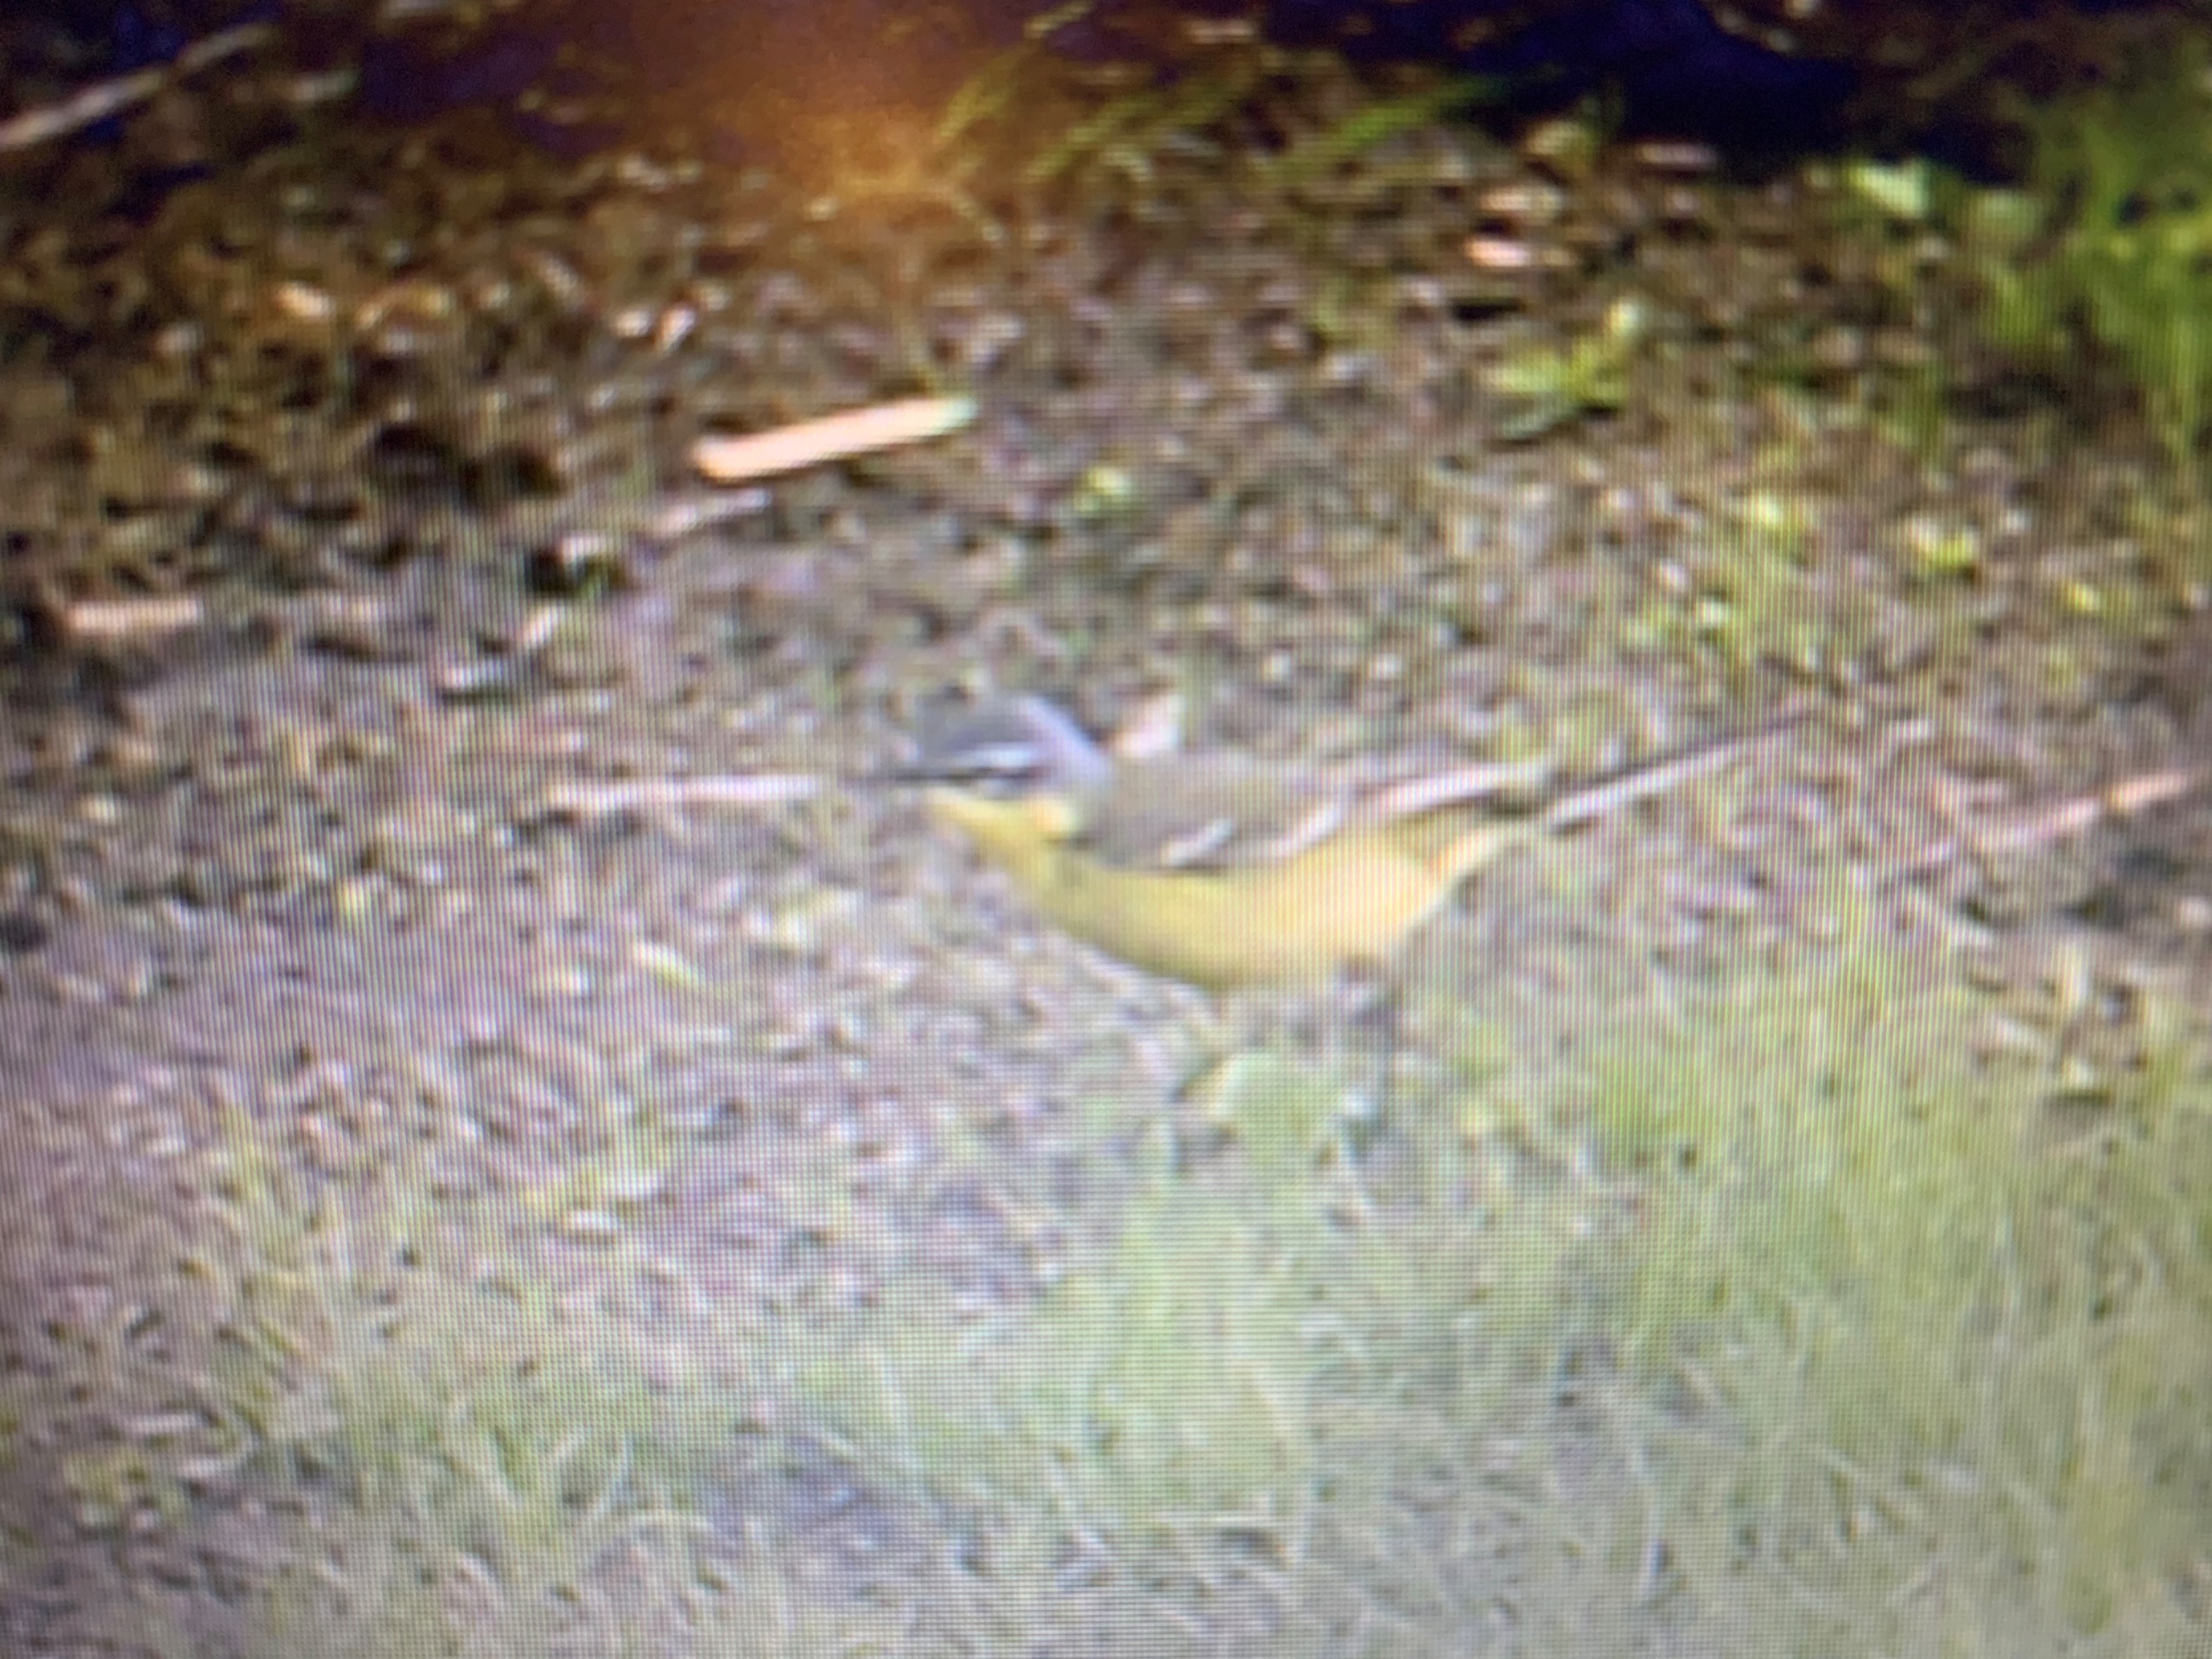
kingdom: Animalia
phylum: Chordata
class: Aves
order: Passeriformes
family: Motacillidae
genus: Motacilla
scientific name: Motacilla flava
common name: Gul vipstjert
